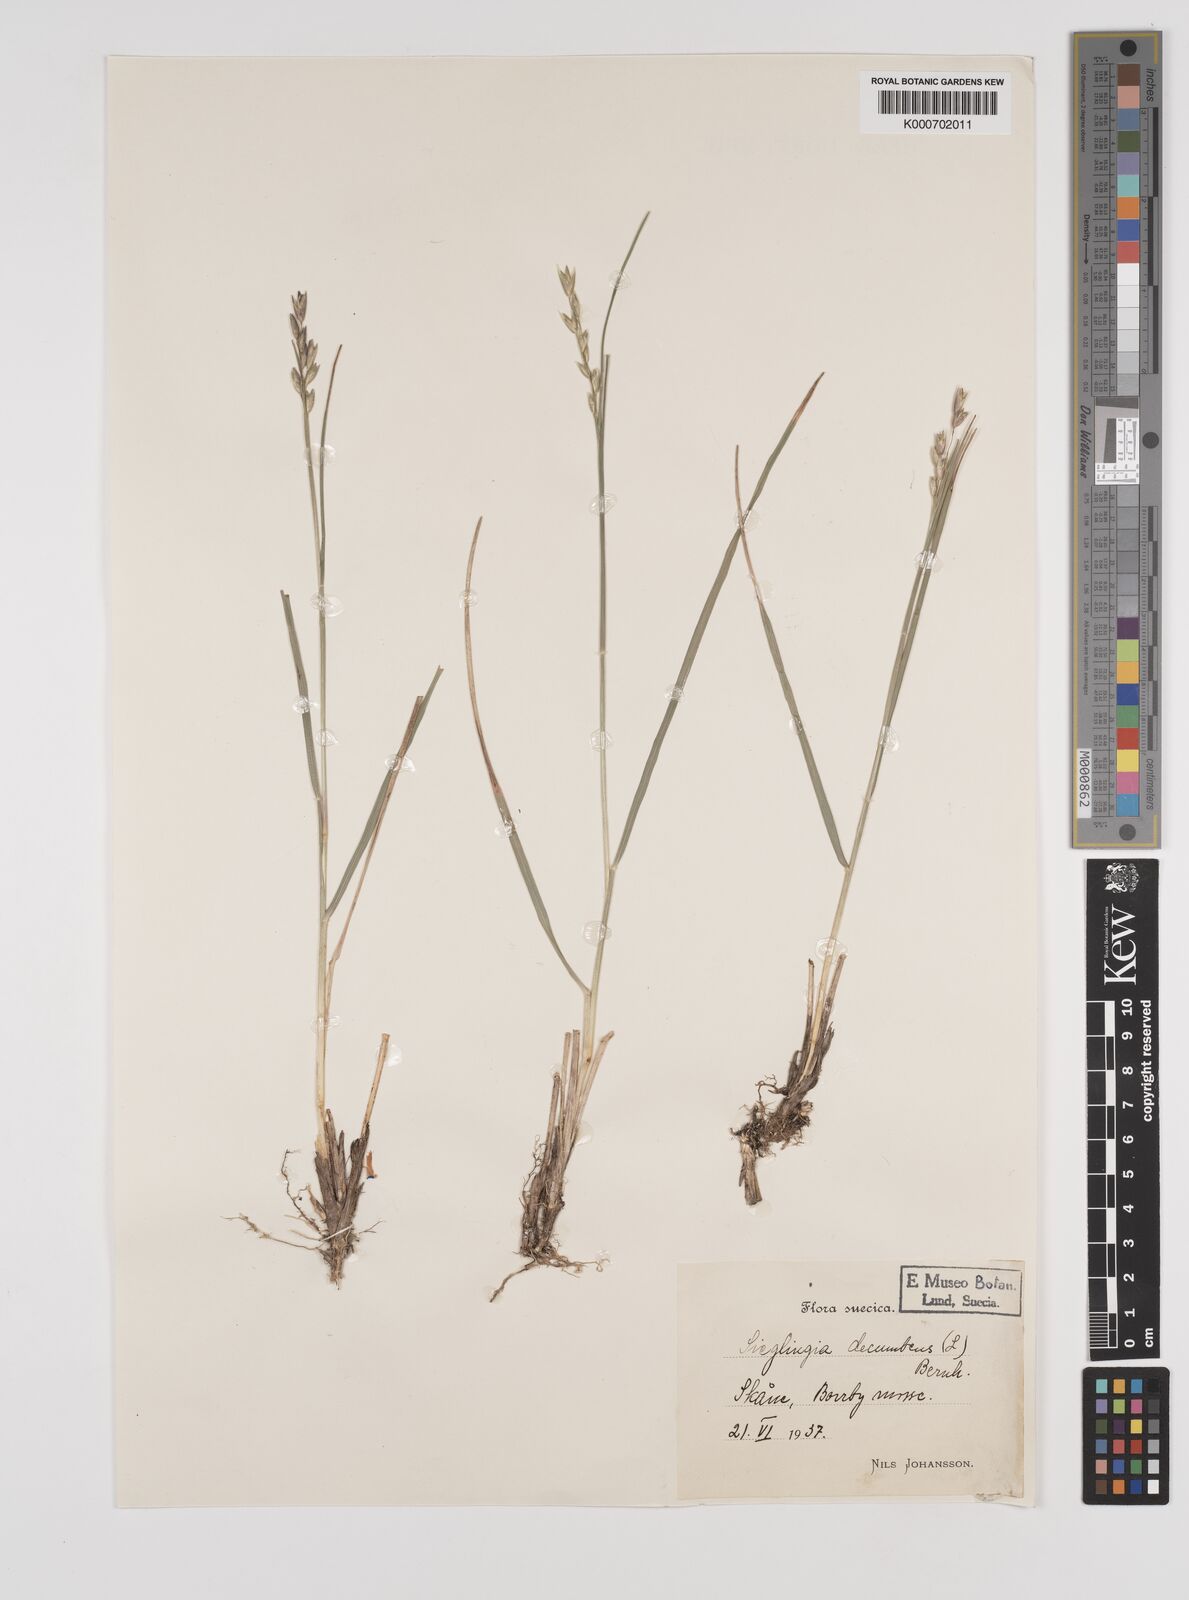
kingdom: Plantae
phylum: Tracheophyta
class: Liliopsida
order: Poales
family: Poaceae
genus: Danthonia
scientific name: Danthonia decumbens
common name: Common heathgrass
